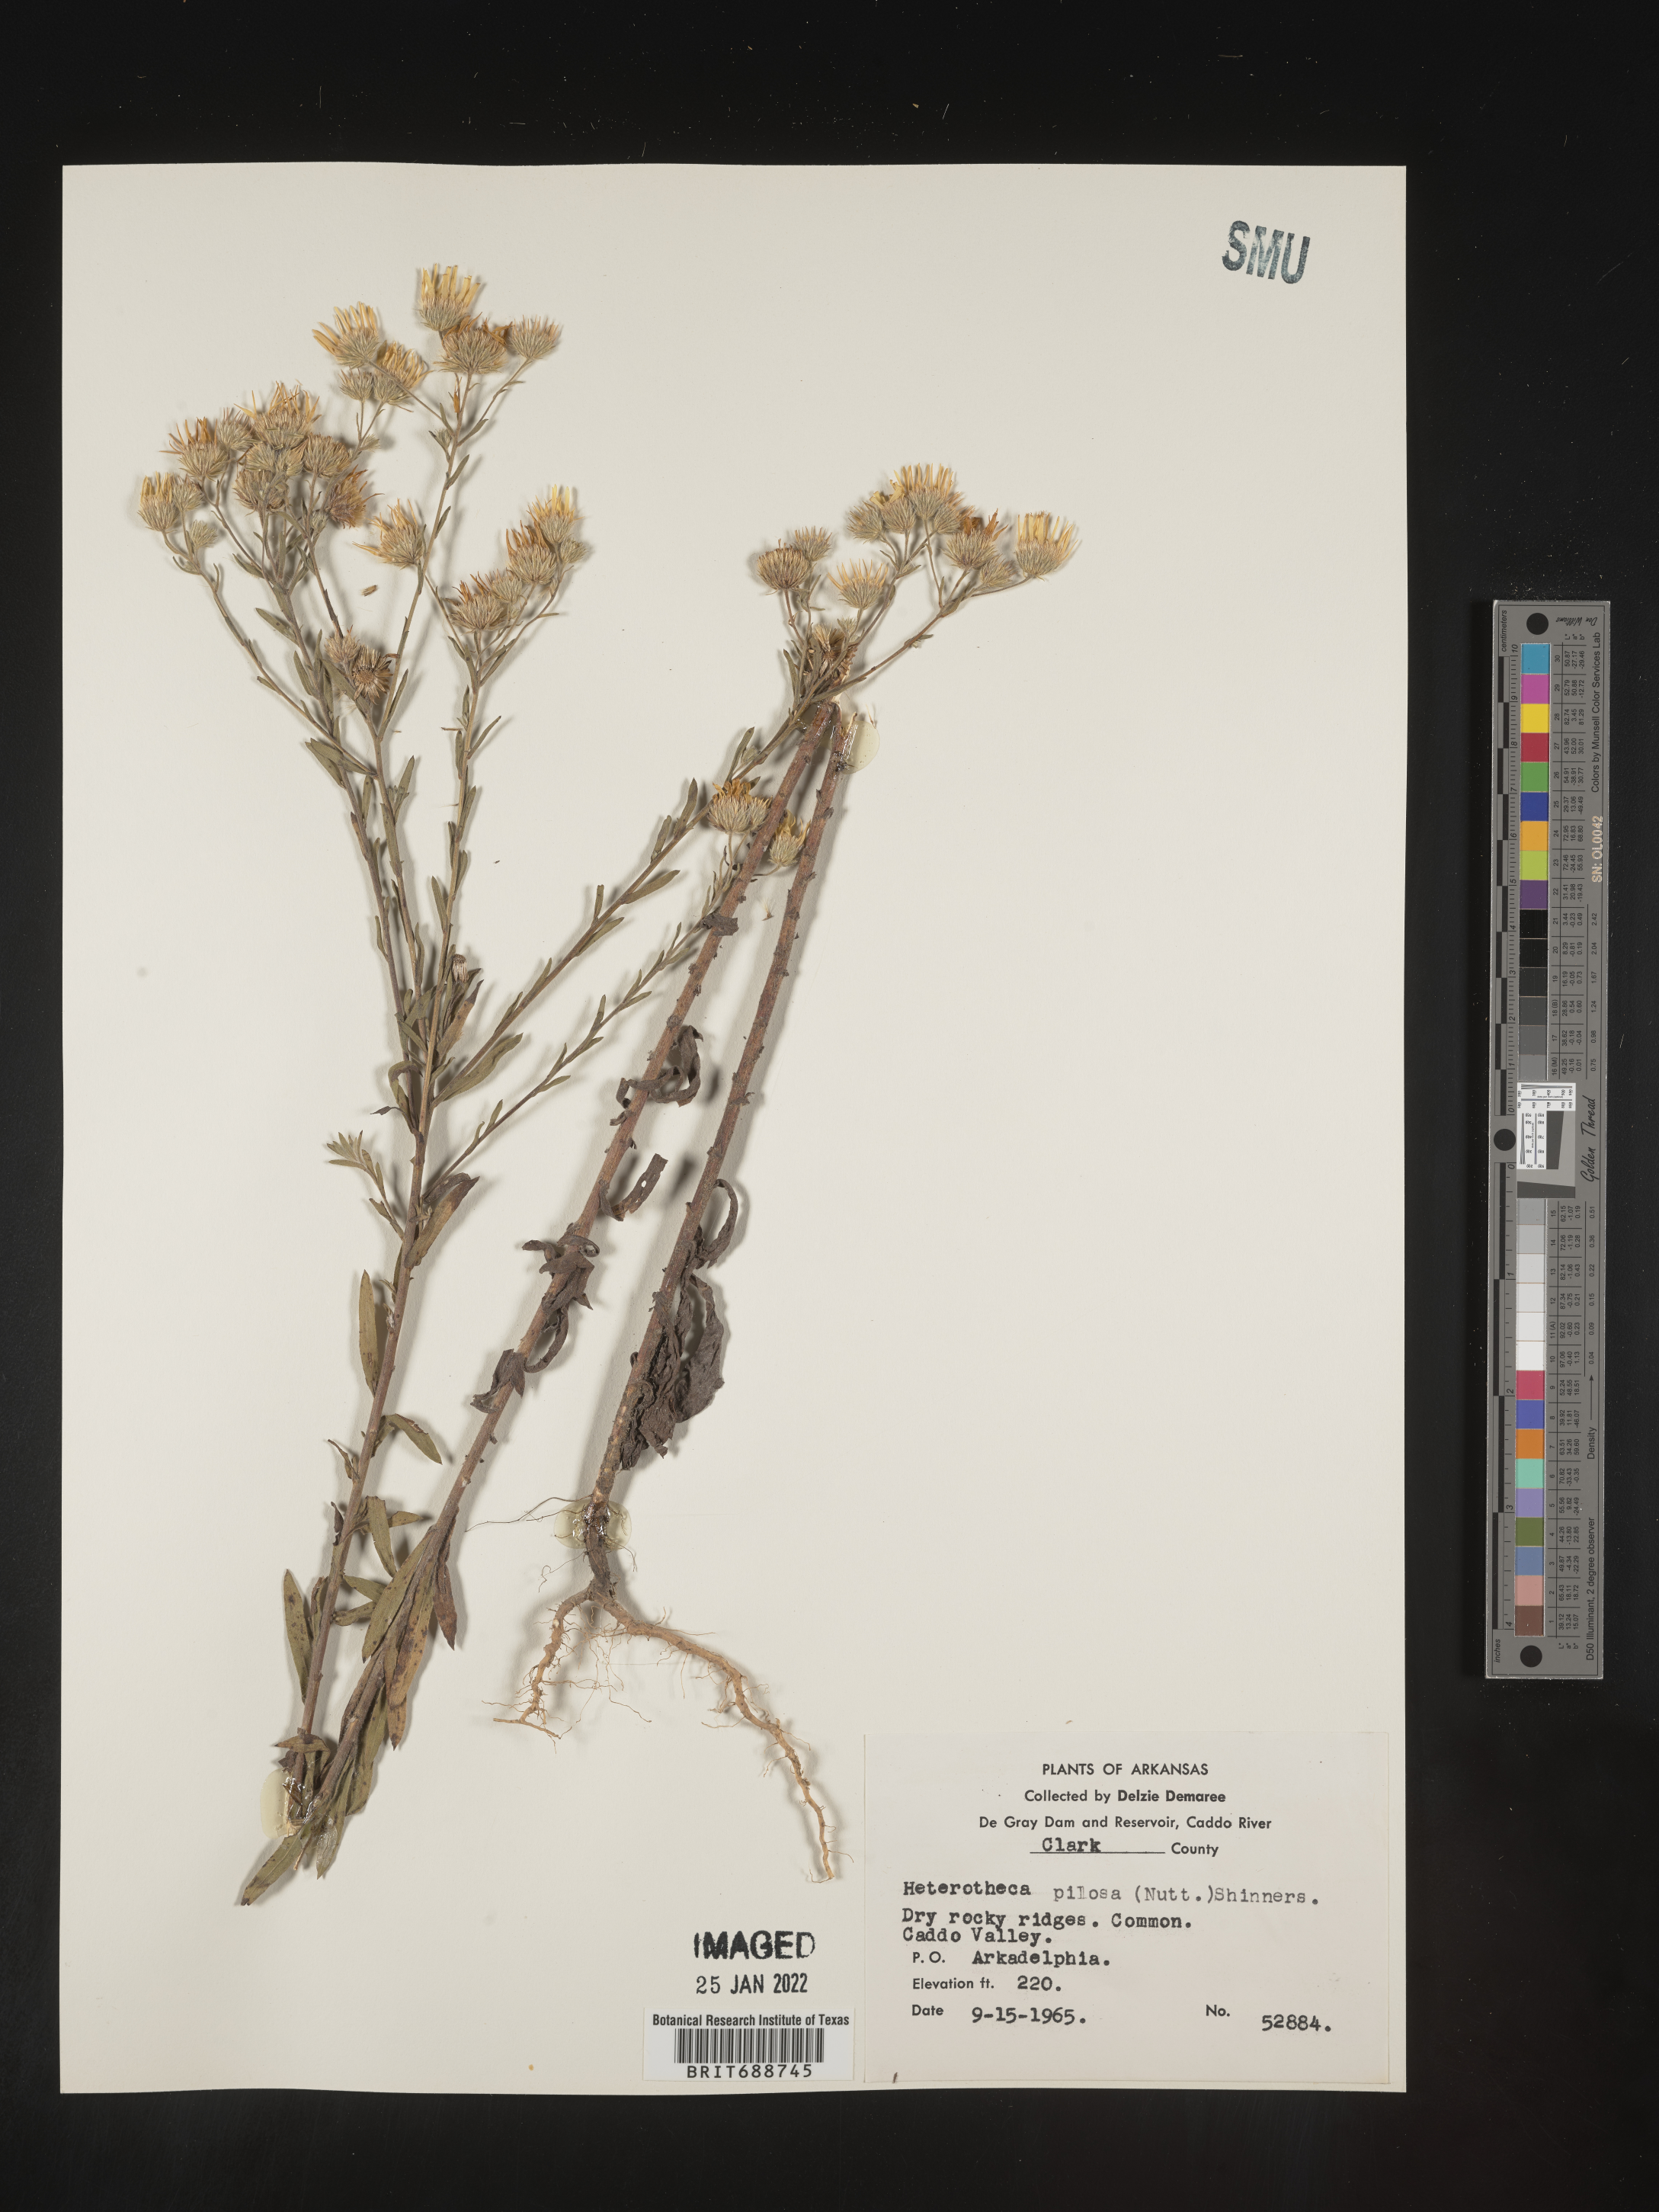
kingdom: Plantae
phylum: Tracheophyta
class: Magnoliopsida
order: Asterales
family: Asteraceae
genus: Bradburia
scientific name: Bradburia pilosa
